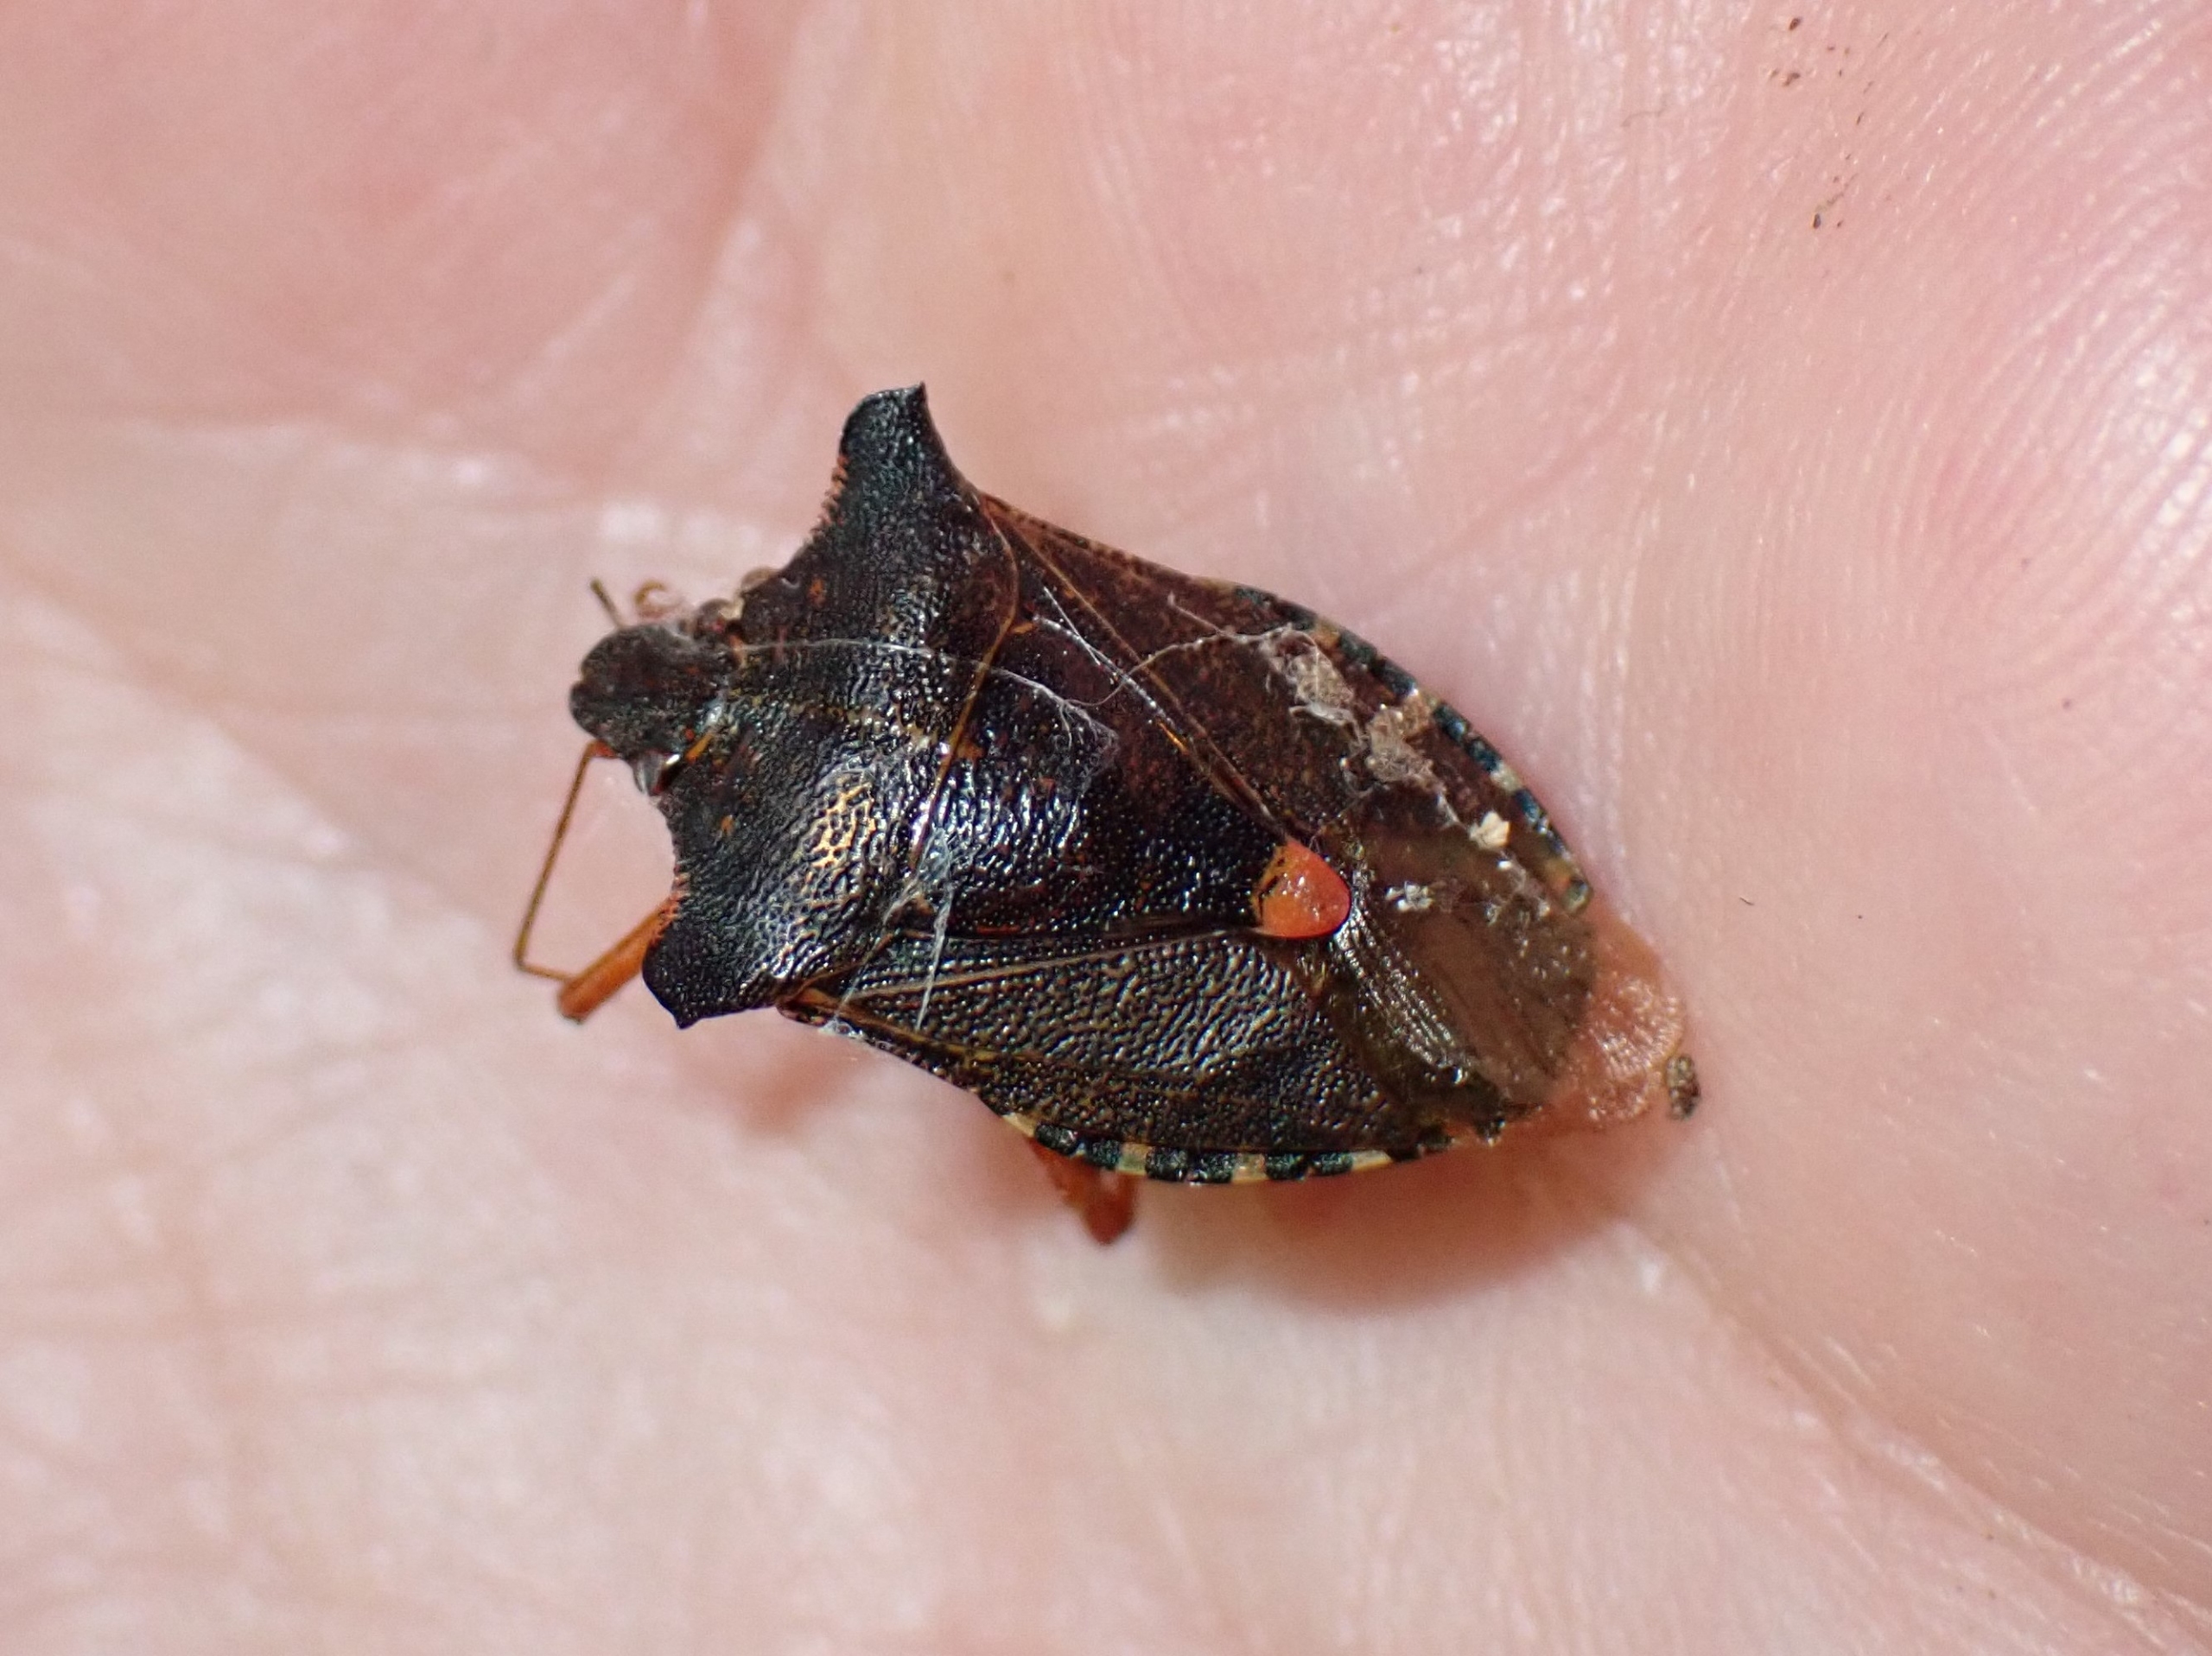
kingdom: Animalia
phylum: Arthropoda
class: Insecta
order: Hemiptera
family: Pentatomidae
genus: Pentatoma
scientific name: Pentatoma rufipes
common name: Rødbenet bredtæge
